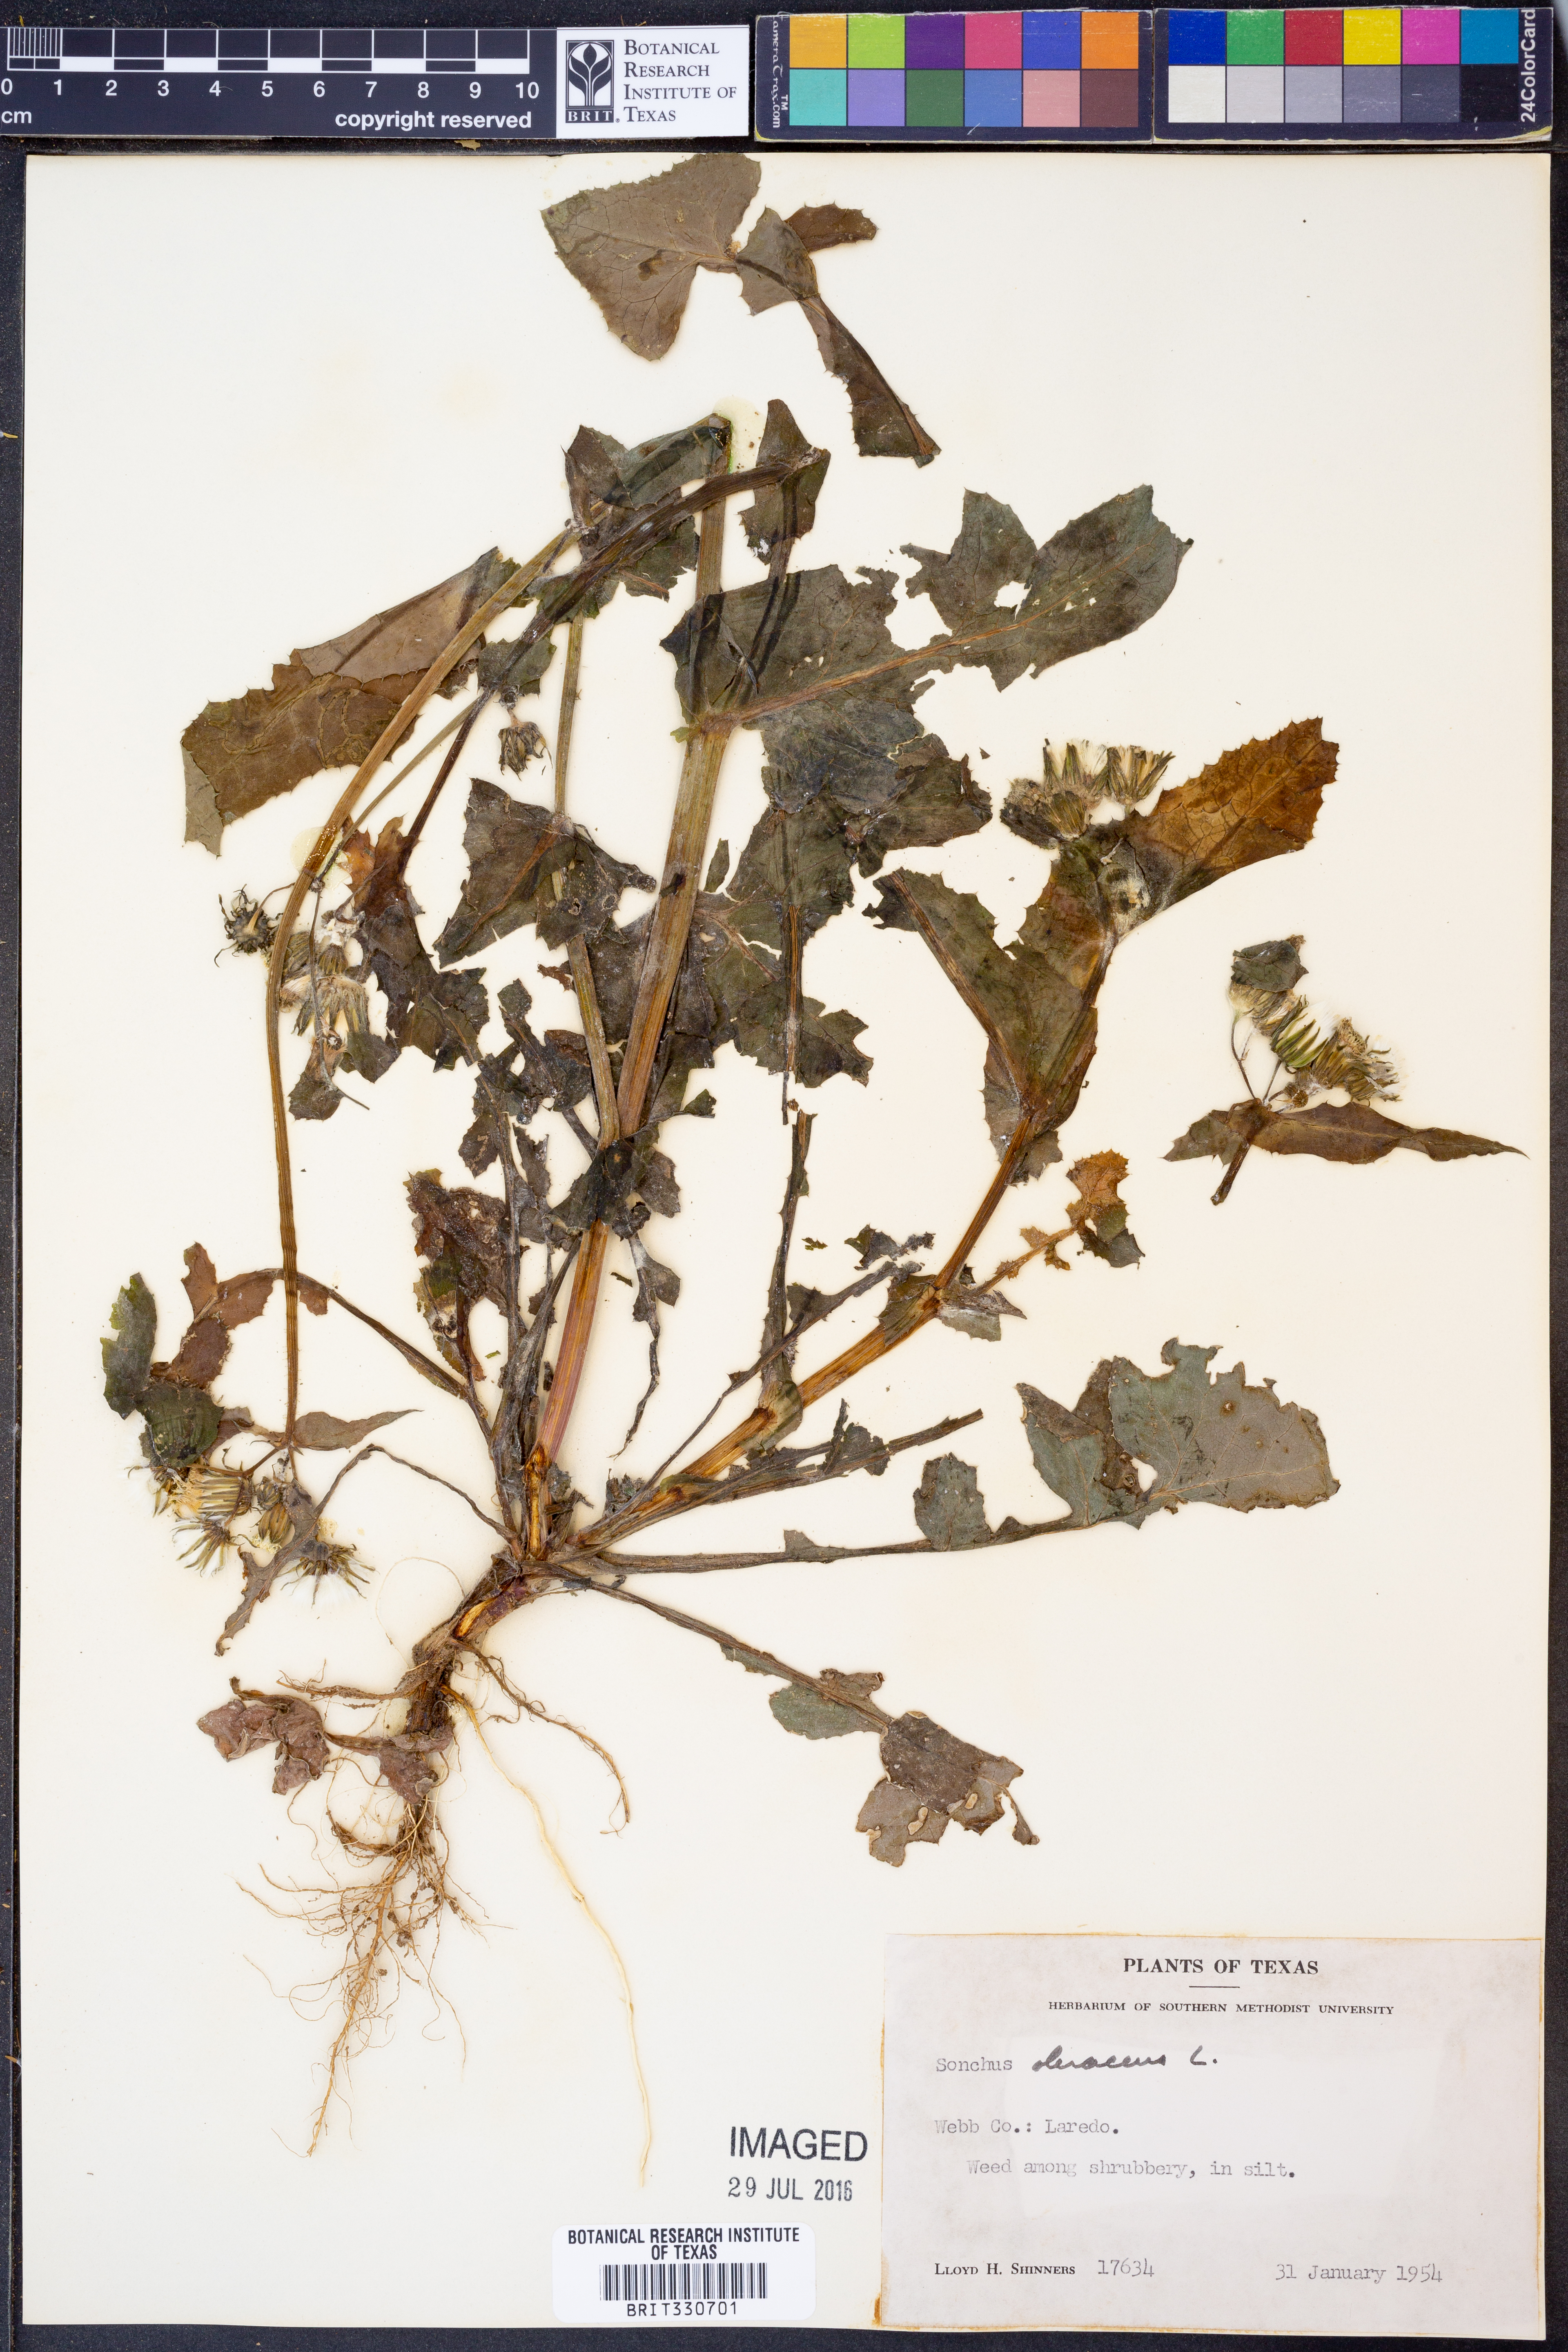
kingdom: Plantae
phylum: Tracheophyta
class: Magnoliopsida
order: Asterales
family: Asteraceae
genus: Sonchus
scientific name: Sonchus oleraceus
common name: Common sowthistle
